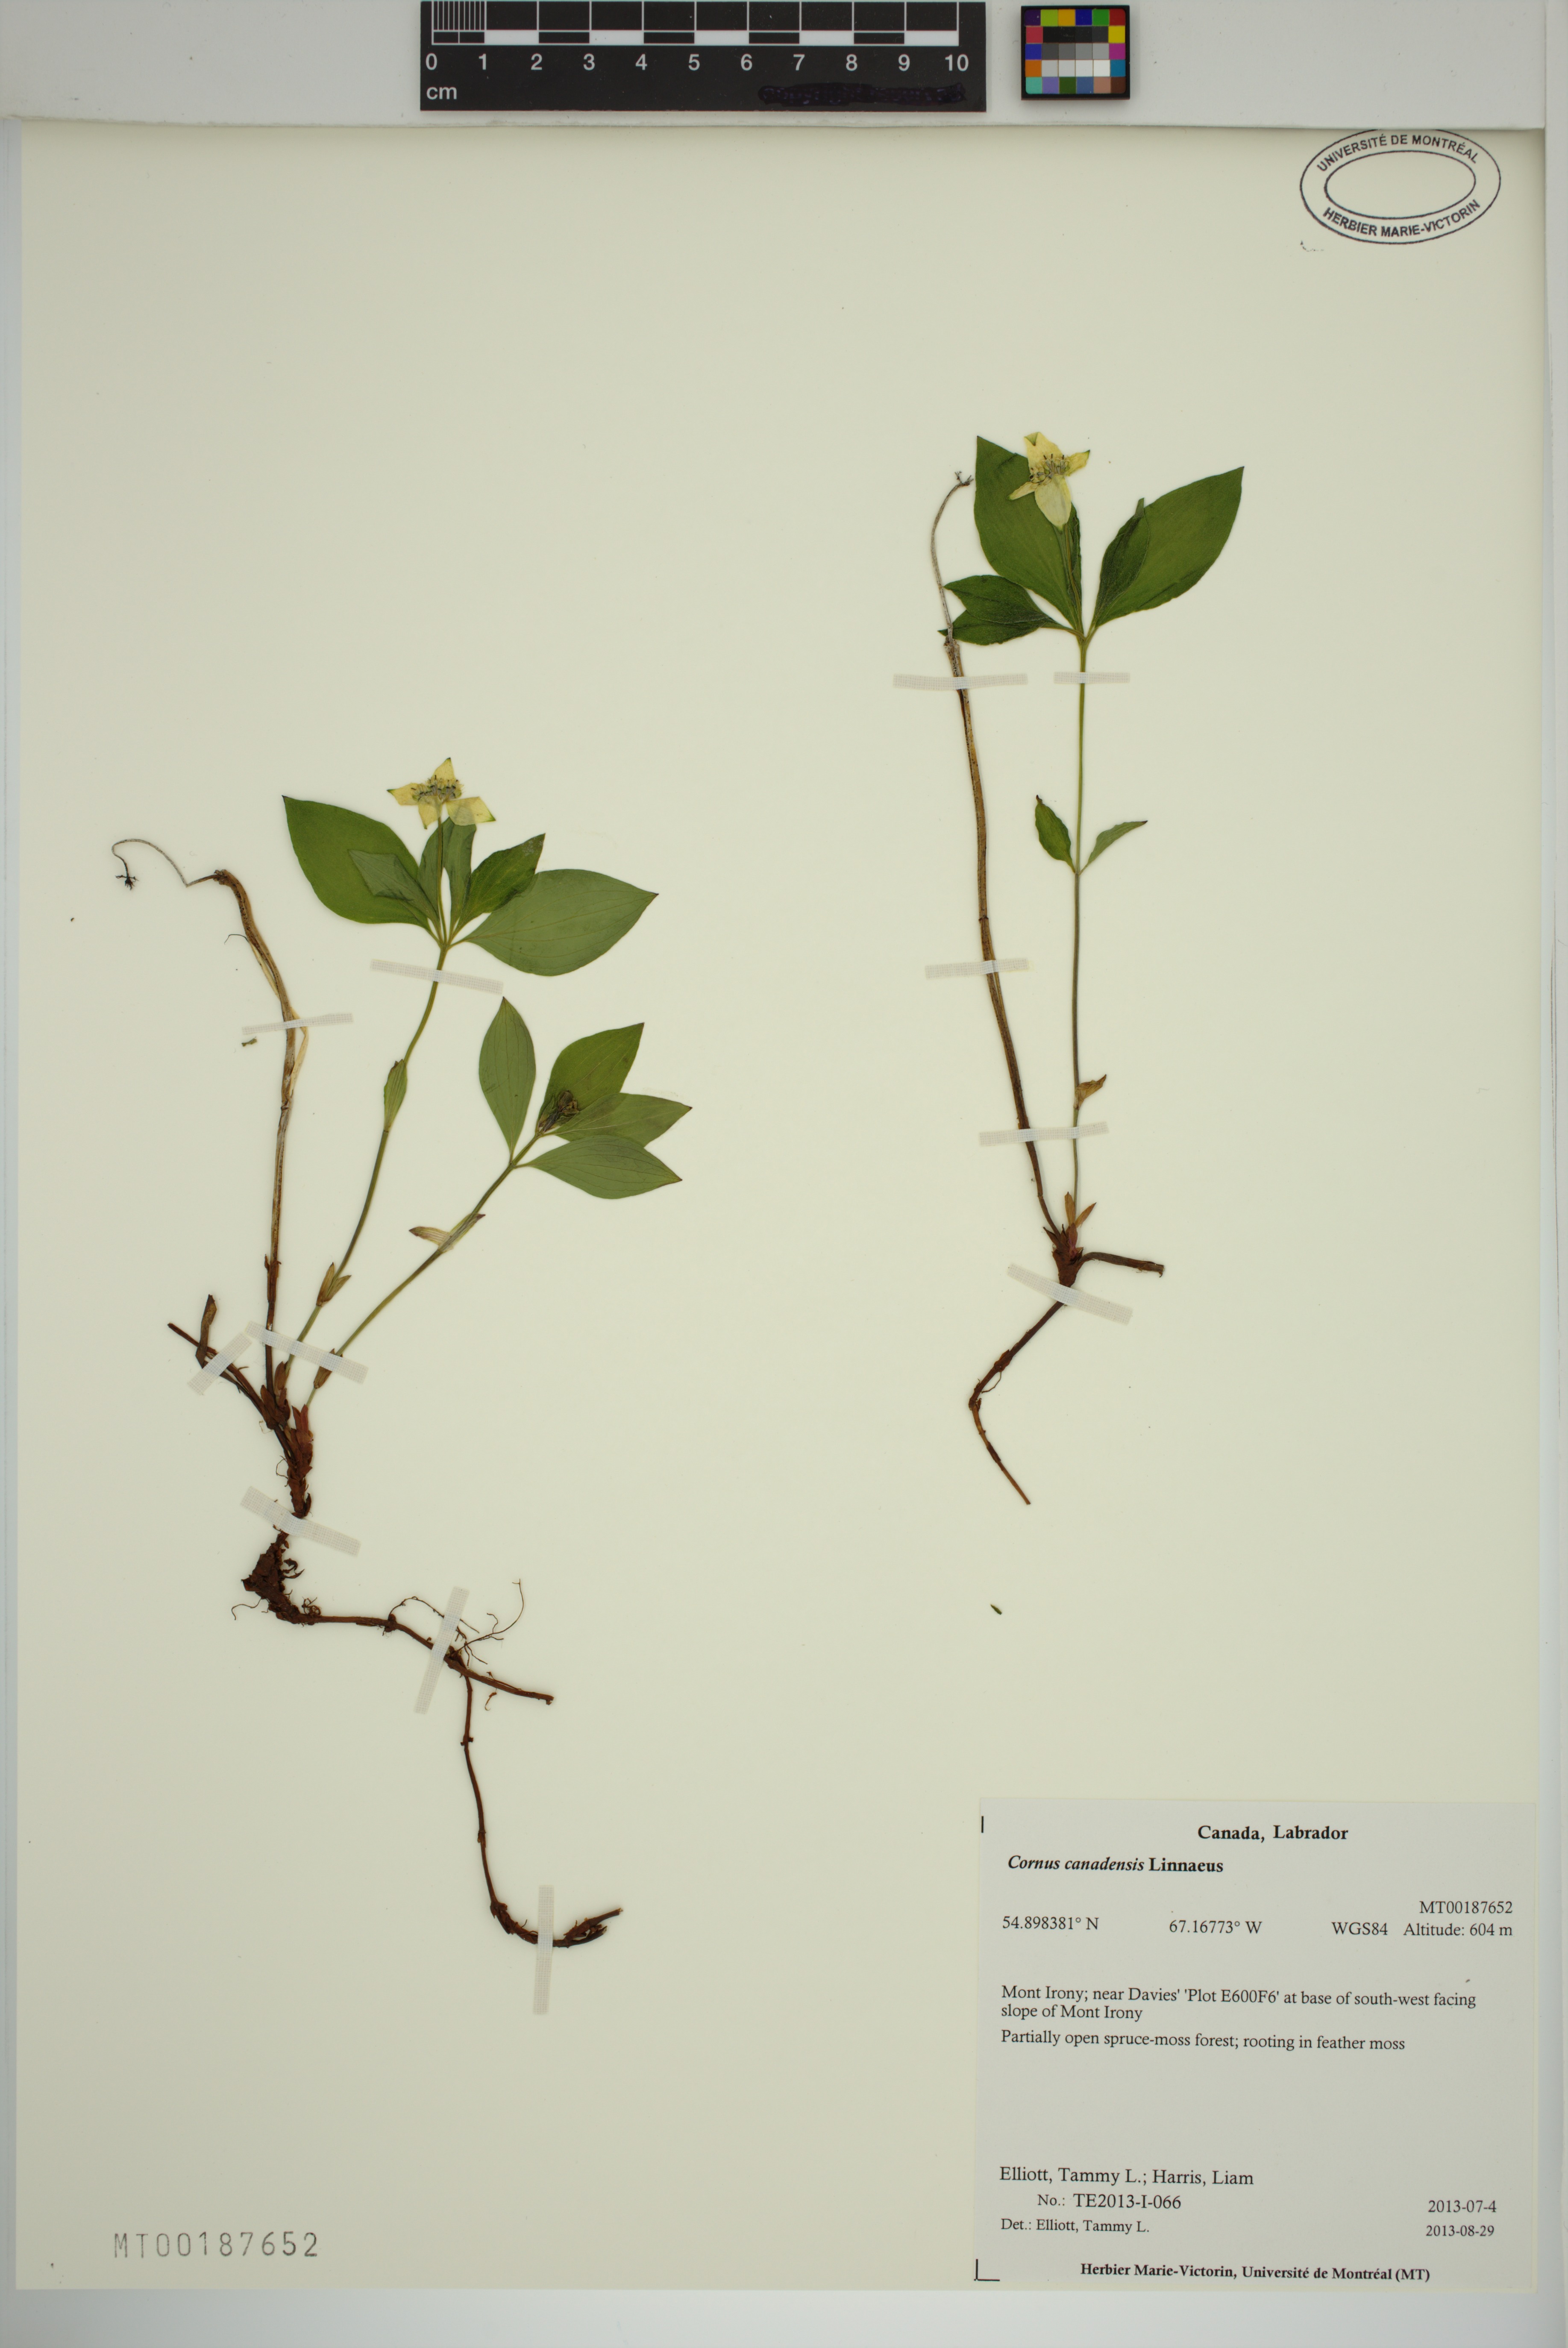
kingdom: Plantae
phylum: Tracheophyta
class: Magnoliopsida
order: Cornales
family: Cornaceae
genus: Cornus
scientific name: Cornus canadensis
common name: Creeping dogwood
